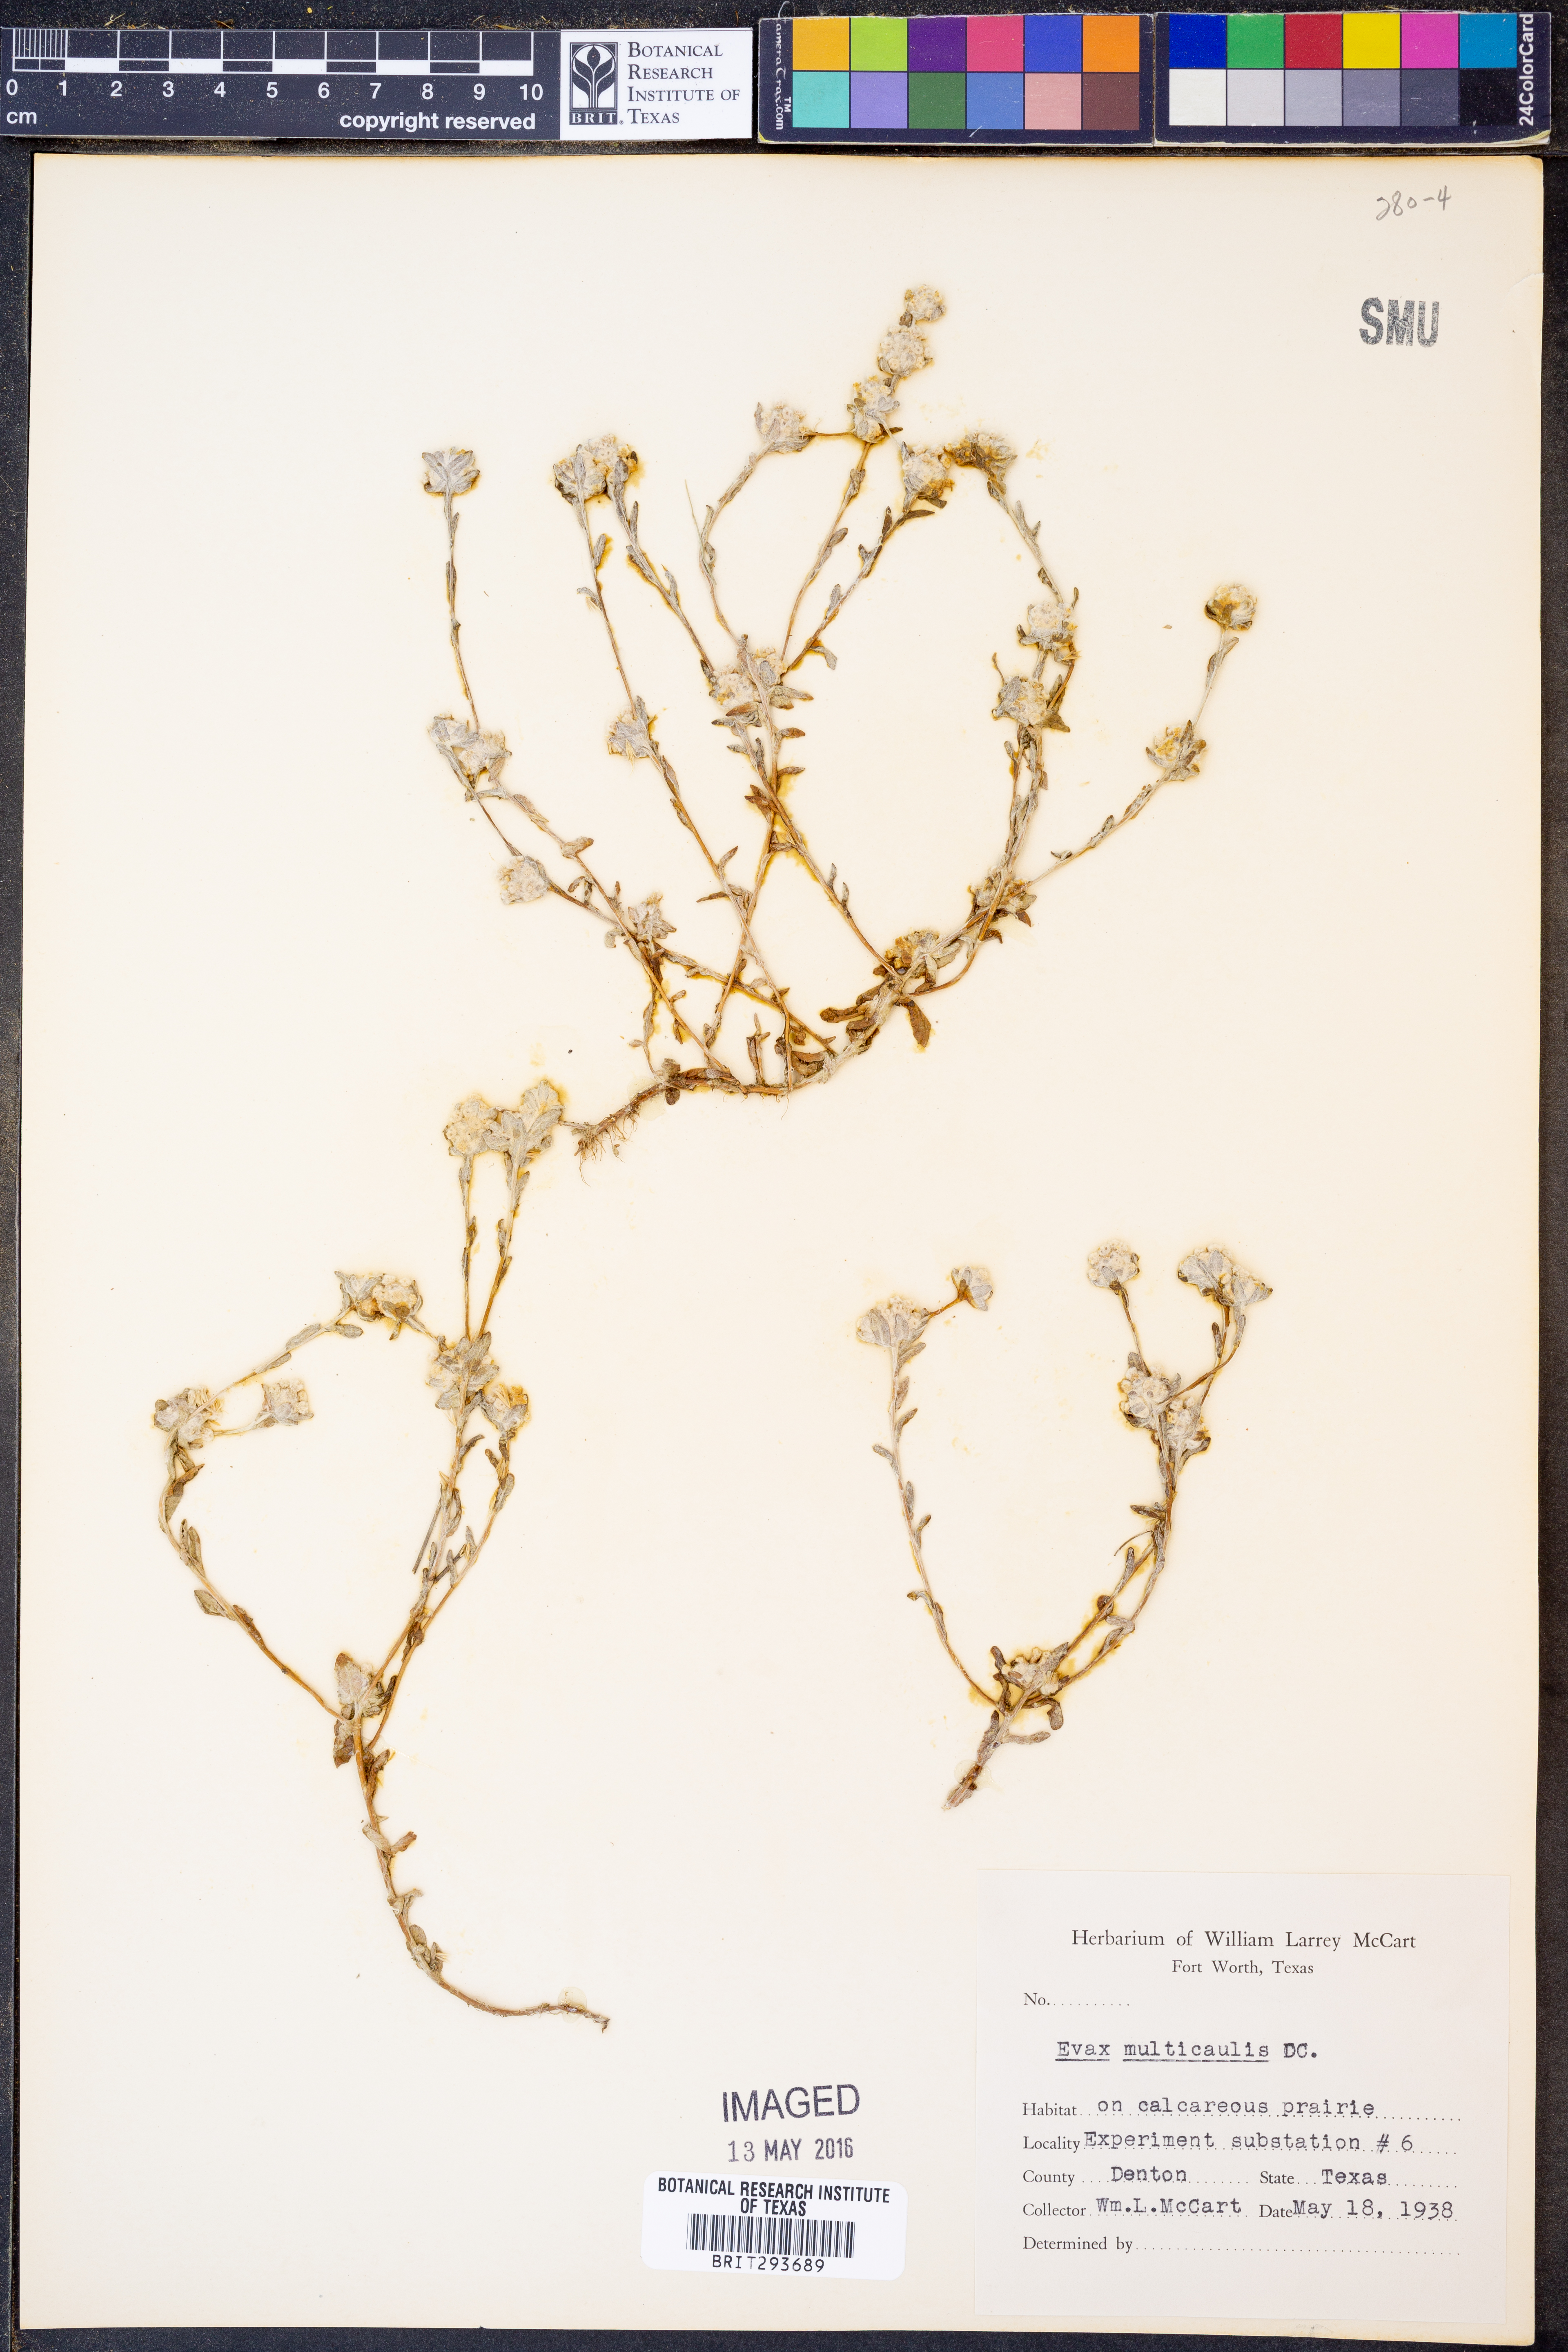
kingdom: Plantae
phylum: Tracheophyta
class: Magnoliopsida
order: Asterales
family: Asteraceae
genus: Diaperia
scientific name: Diaperia verna
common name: Many-stem rabbit-tobacco
